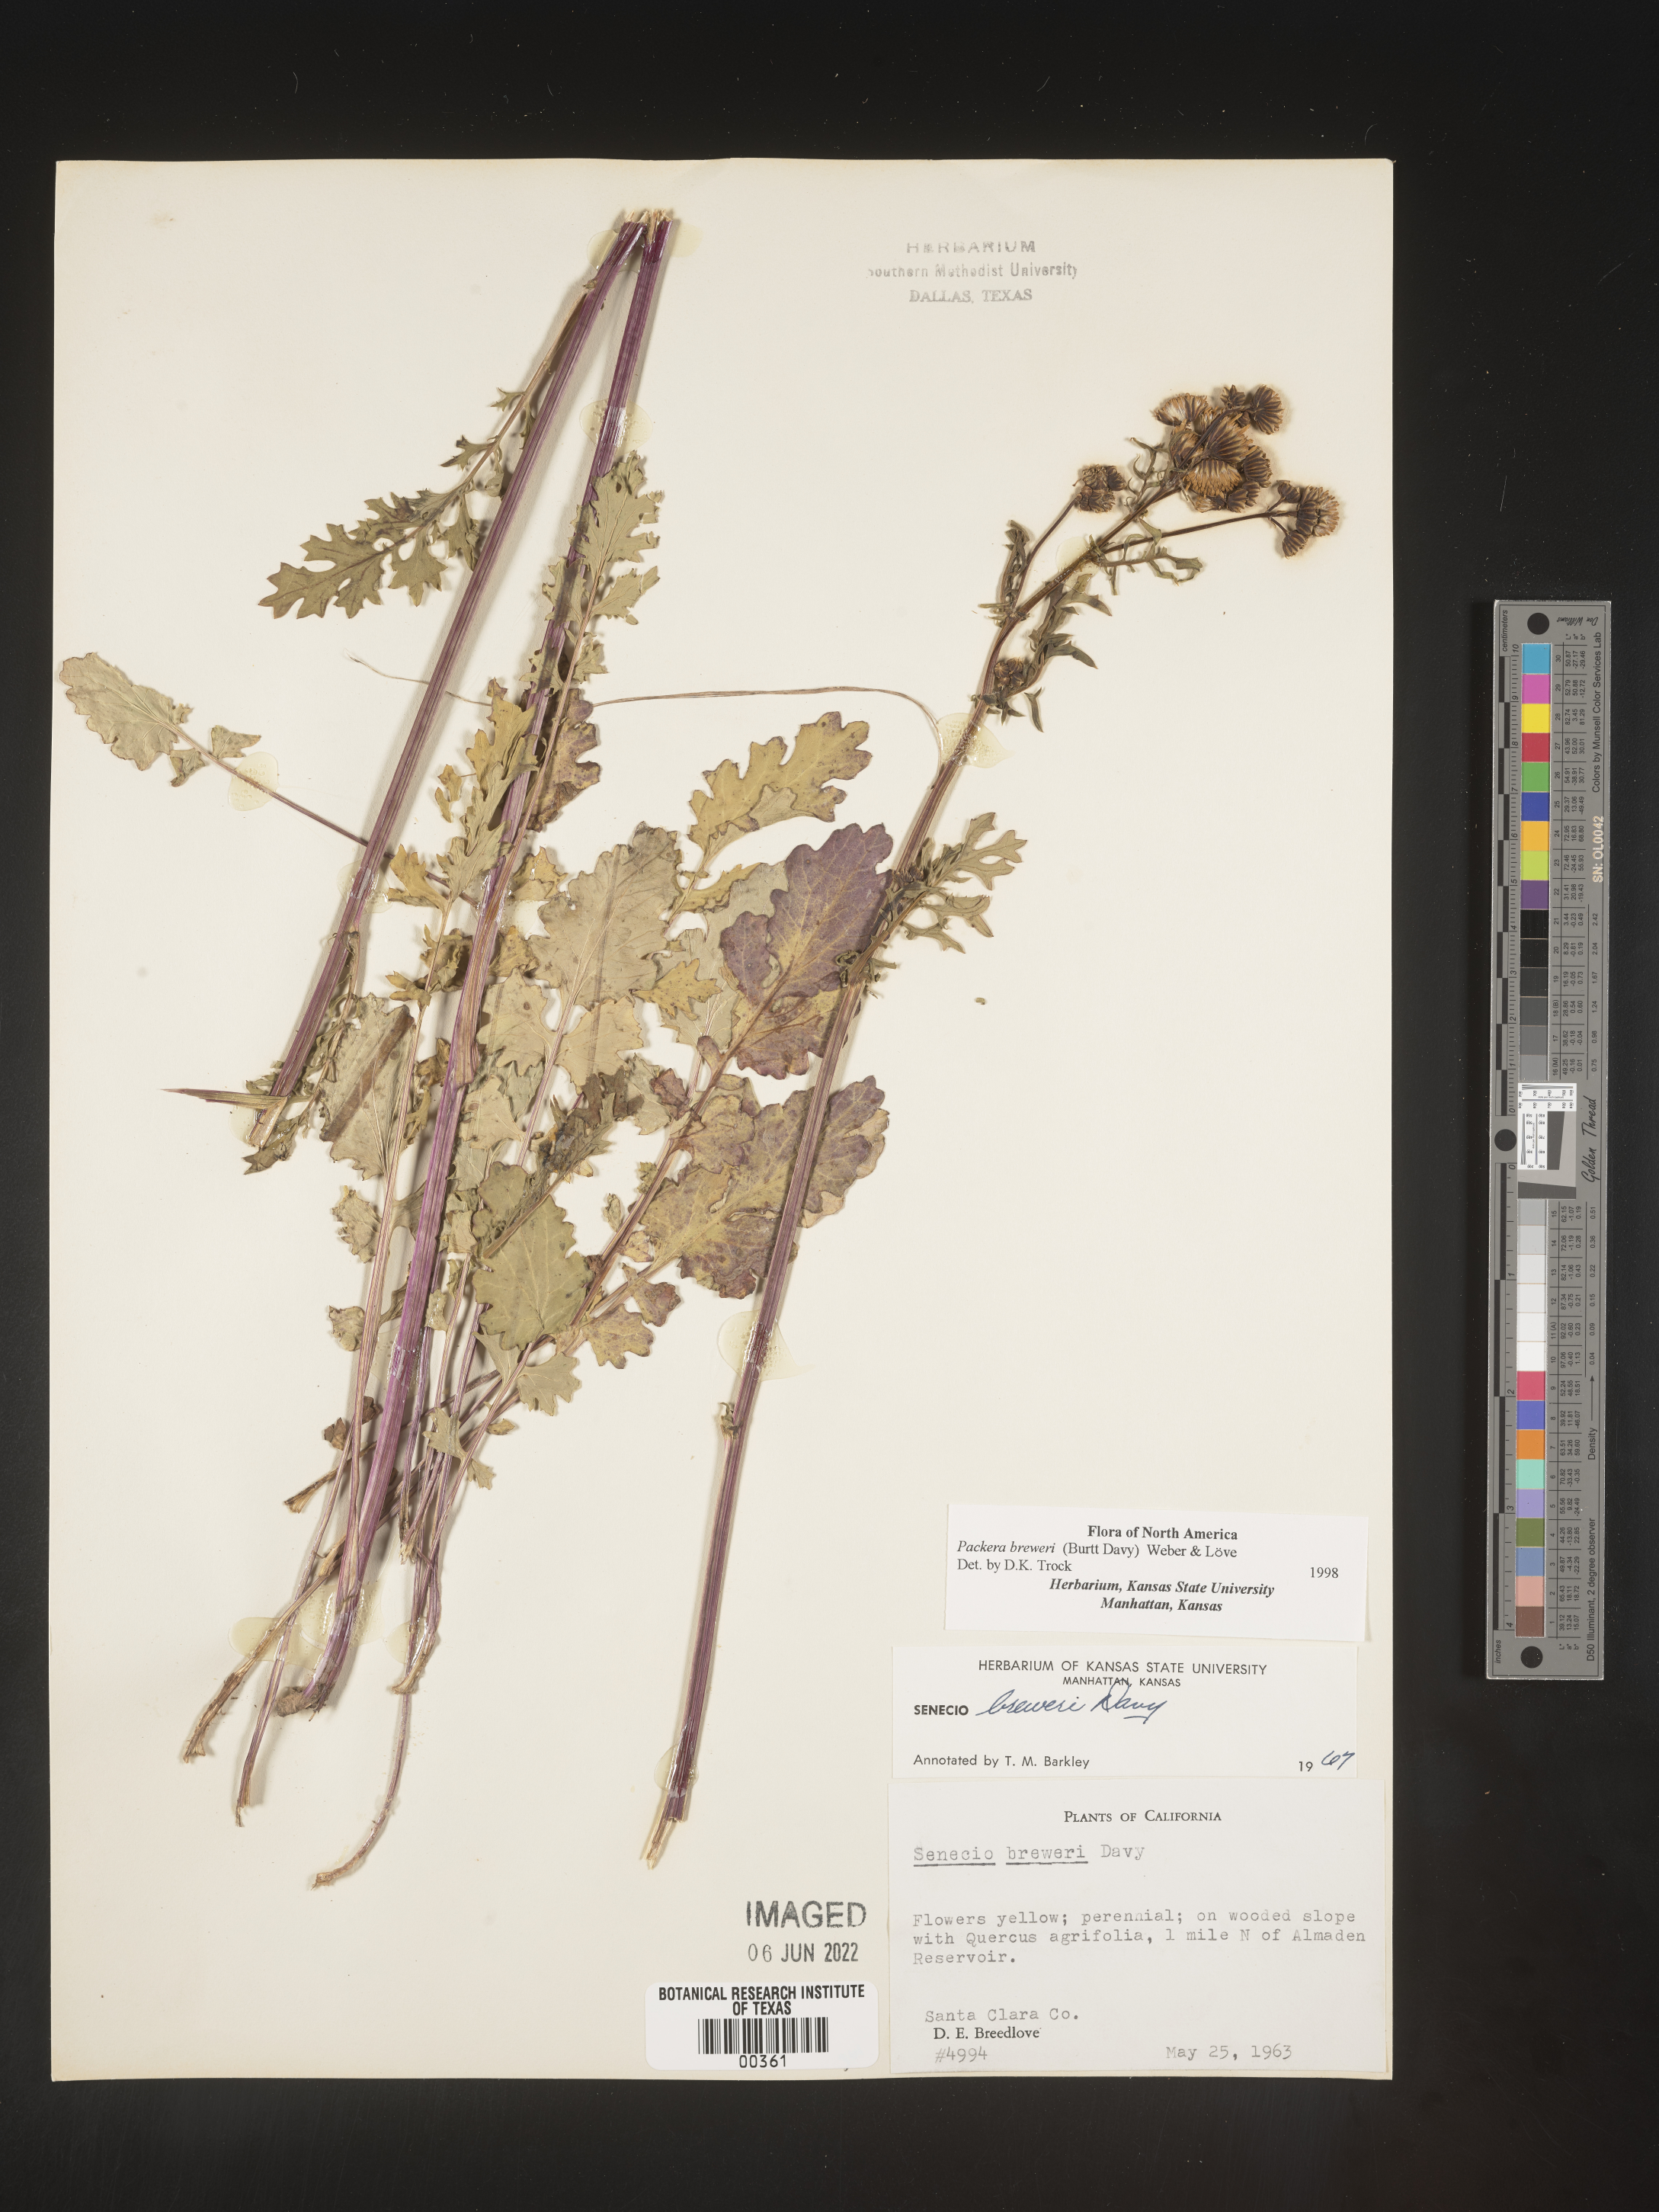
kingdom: Plantae
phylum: Tracheophyta
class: Magnoliopsida
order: Asterales
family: Asteraceae
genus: Packera
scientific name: Packera breweri
